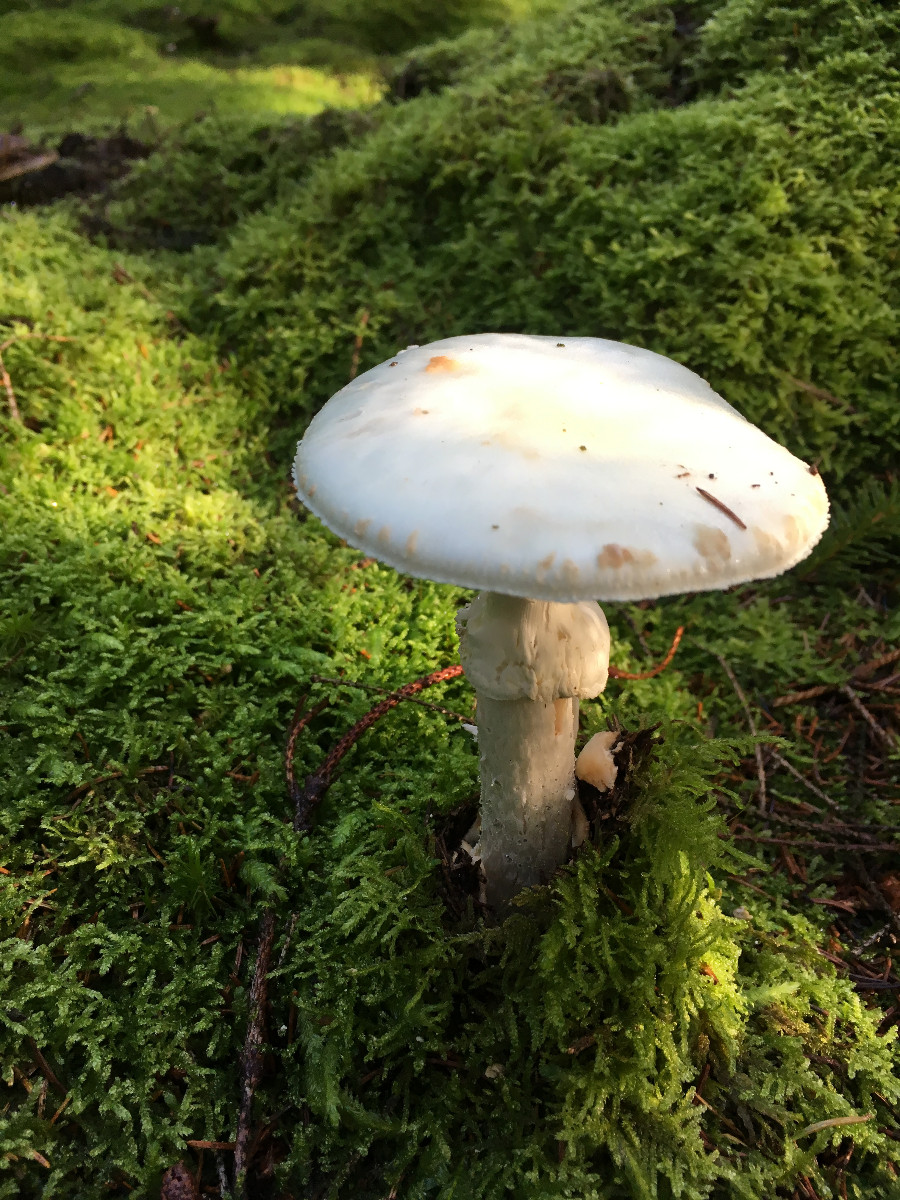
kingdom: Fungi
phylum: Basidiomycota
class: Agaricomycetes
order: Agaricales
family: Amanitaceae
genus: Amanita
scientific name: Amanita citrina
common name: False death-cap
